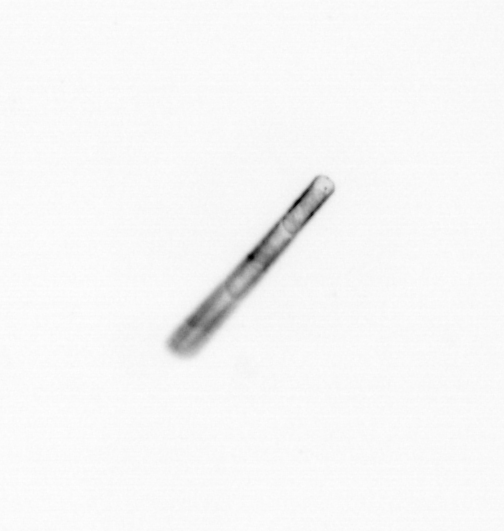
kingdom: Chromista
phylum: Ochrophyta
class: Bacillariophyceae
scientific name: Bacillariophyceae
